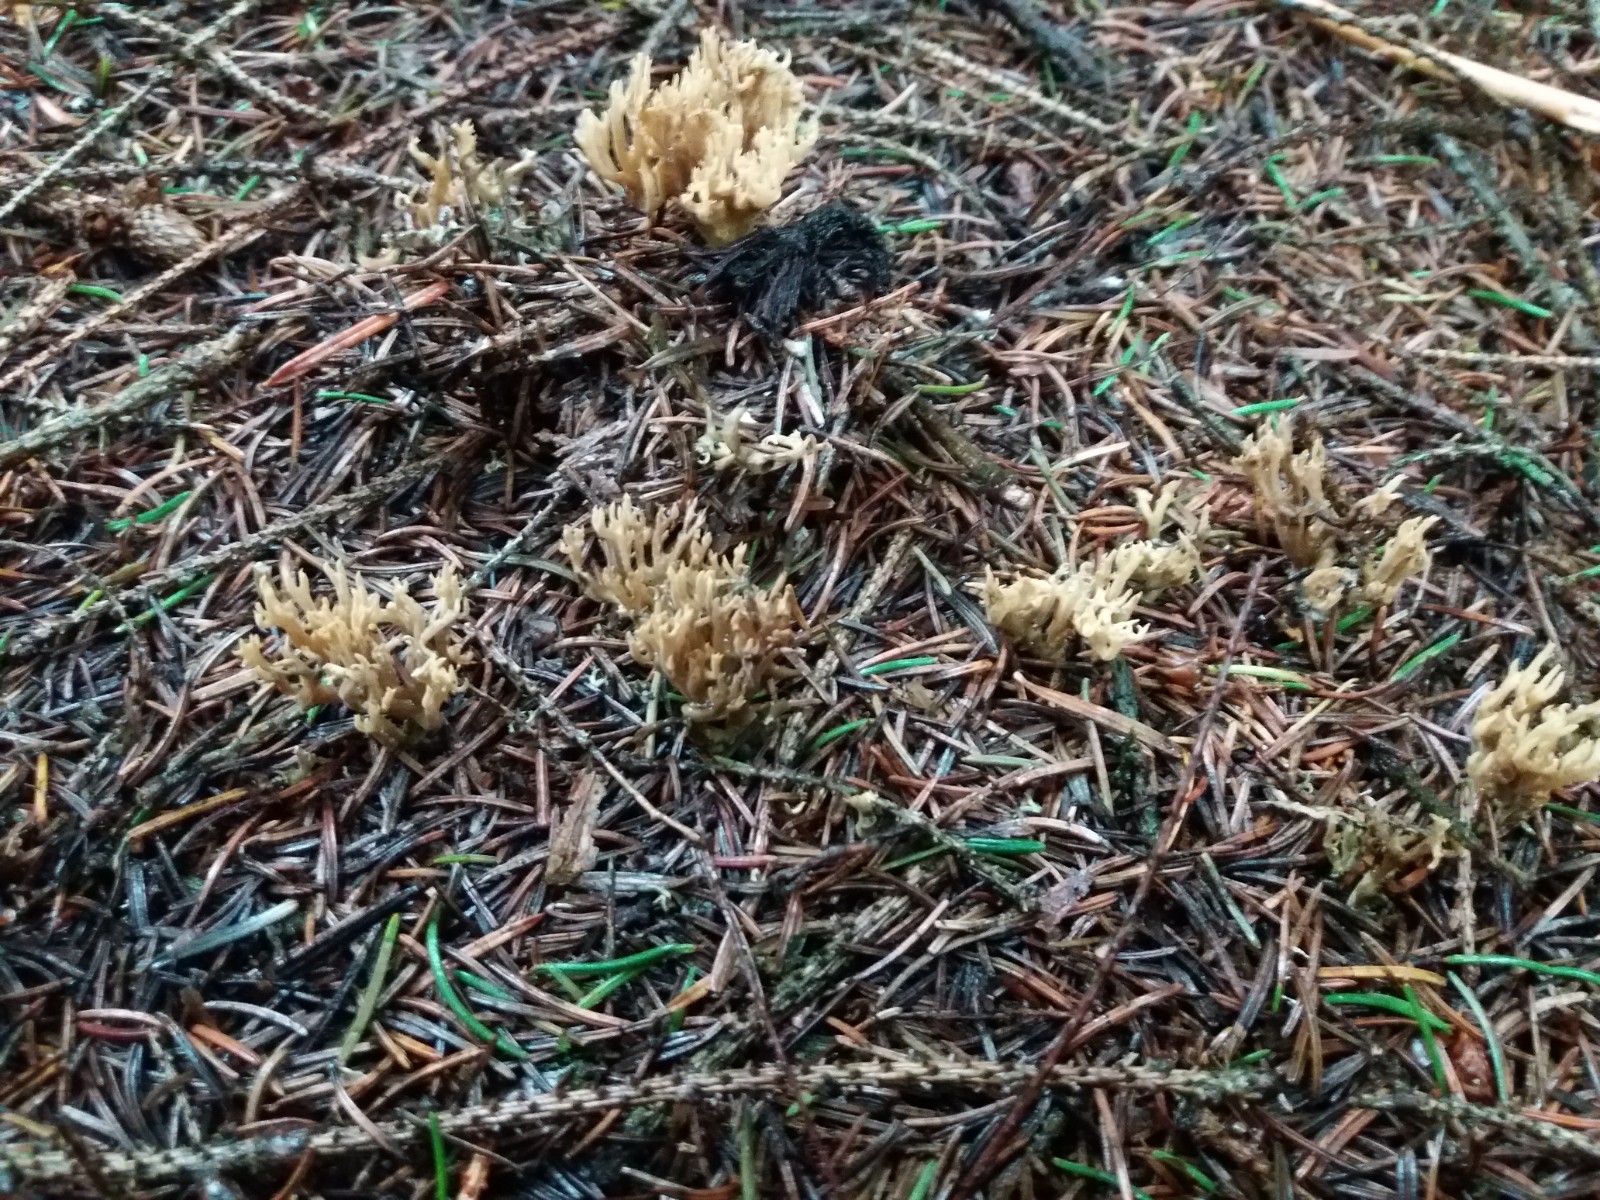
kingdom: Fungi
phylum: Basidiomycota
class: Agaricomycetes
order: Gomphales
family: Gomphaceae
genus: Phaeoclavulina
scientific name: Phaeoclavulina abietina
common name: gulgrøn koralsvamp
